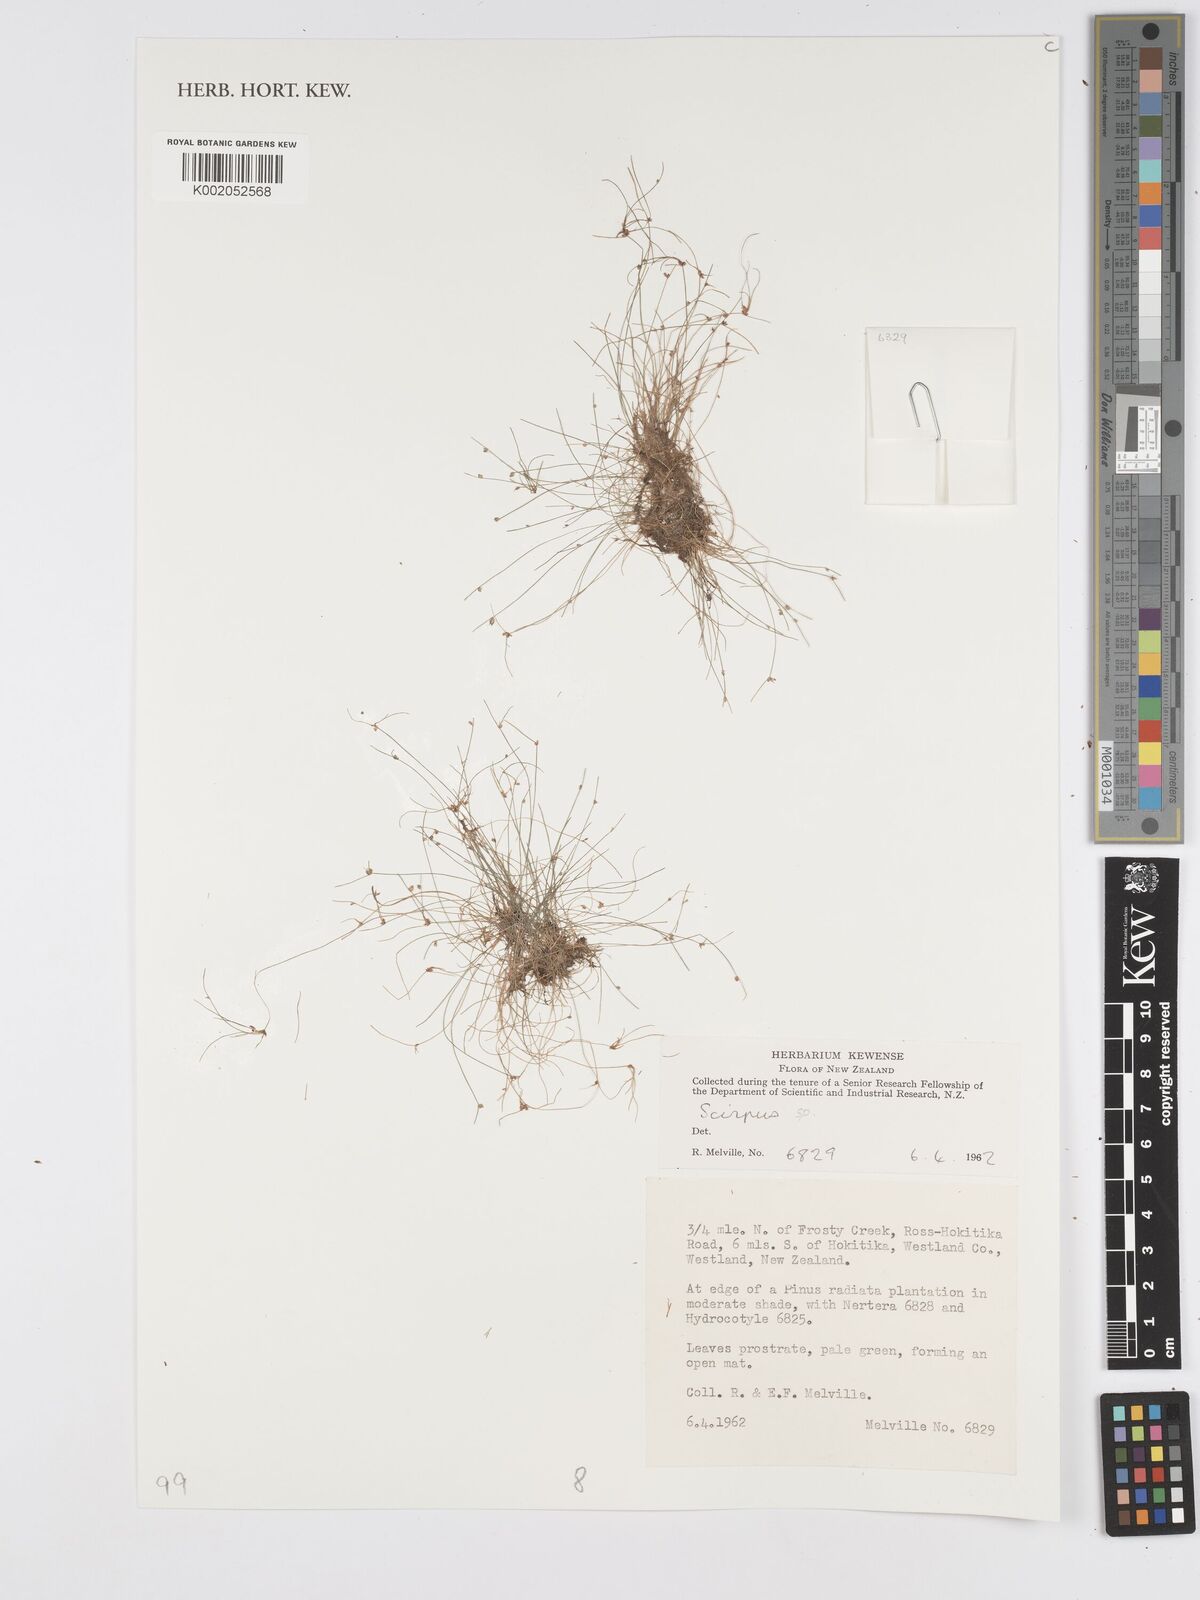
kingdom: Plantae
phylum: Tracheophyta
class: Liliopsida
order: Poales
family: Cyperaceae
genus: Scirpus
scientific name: Scirpus
